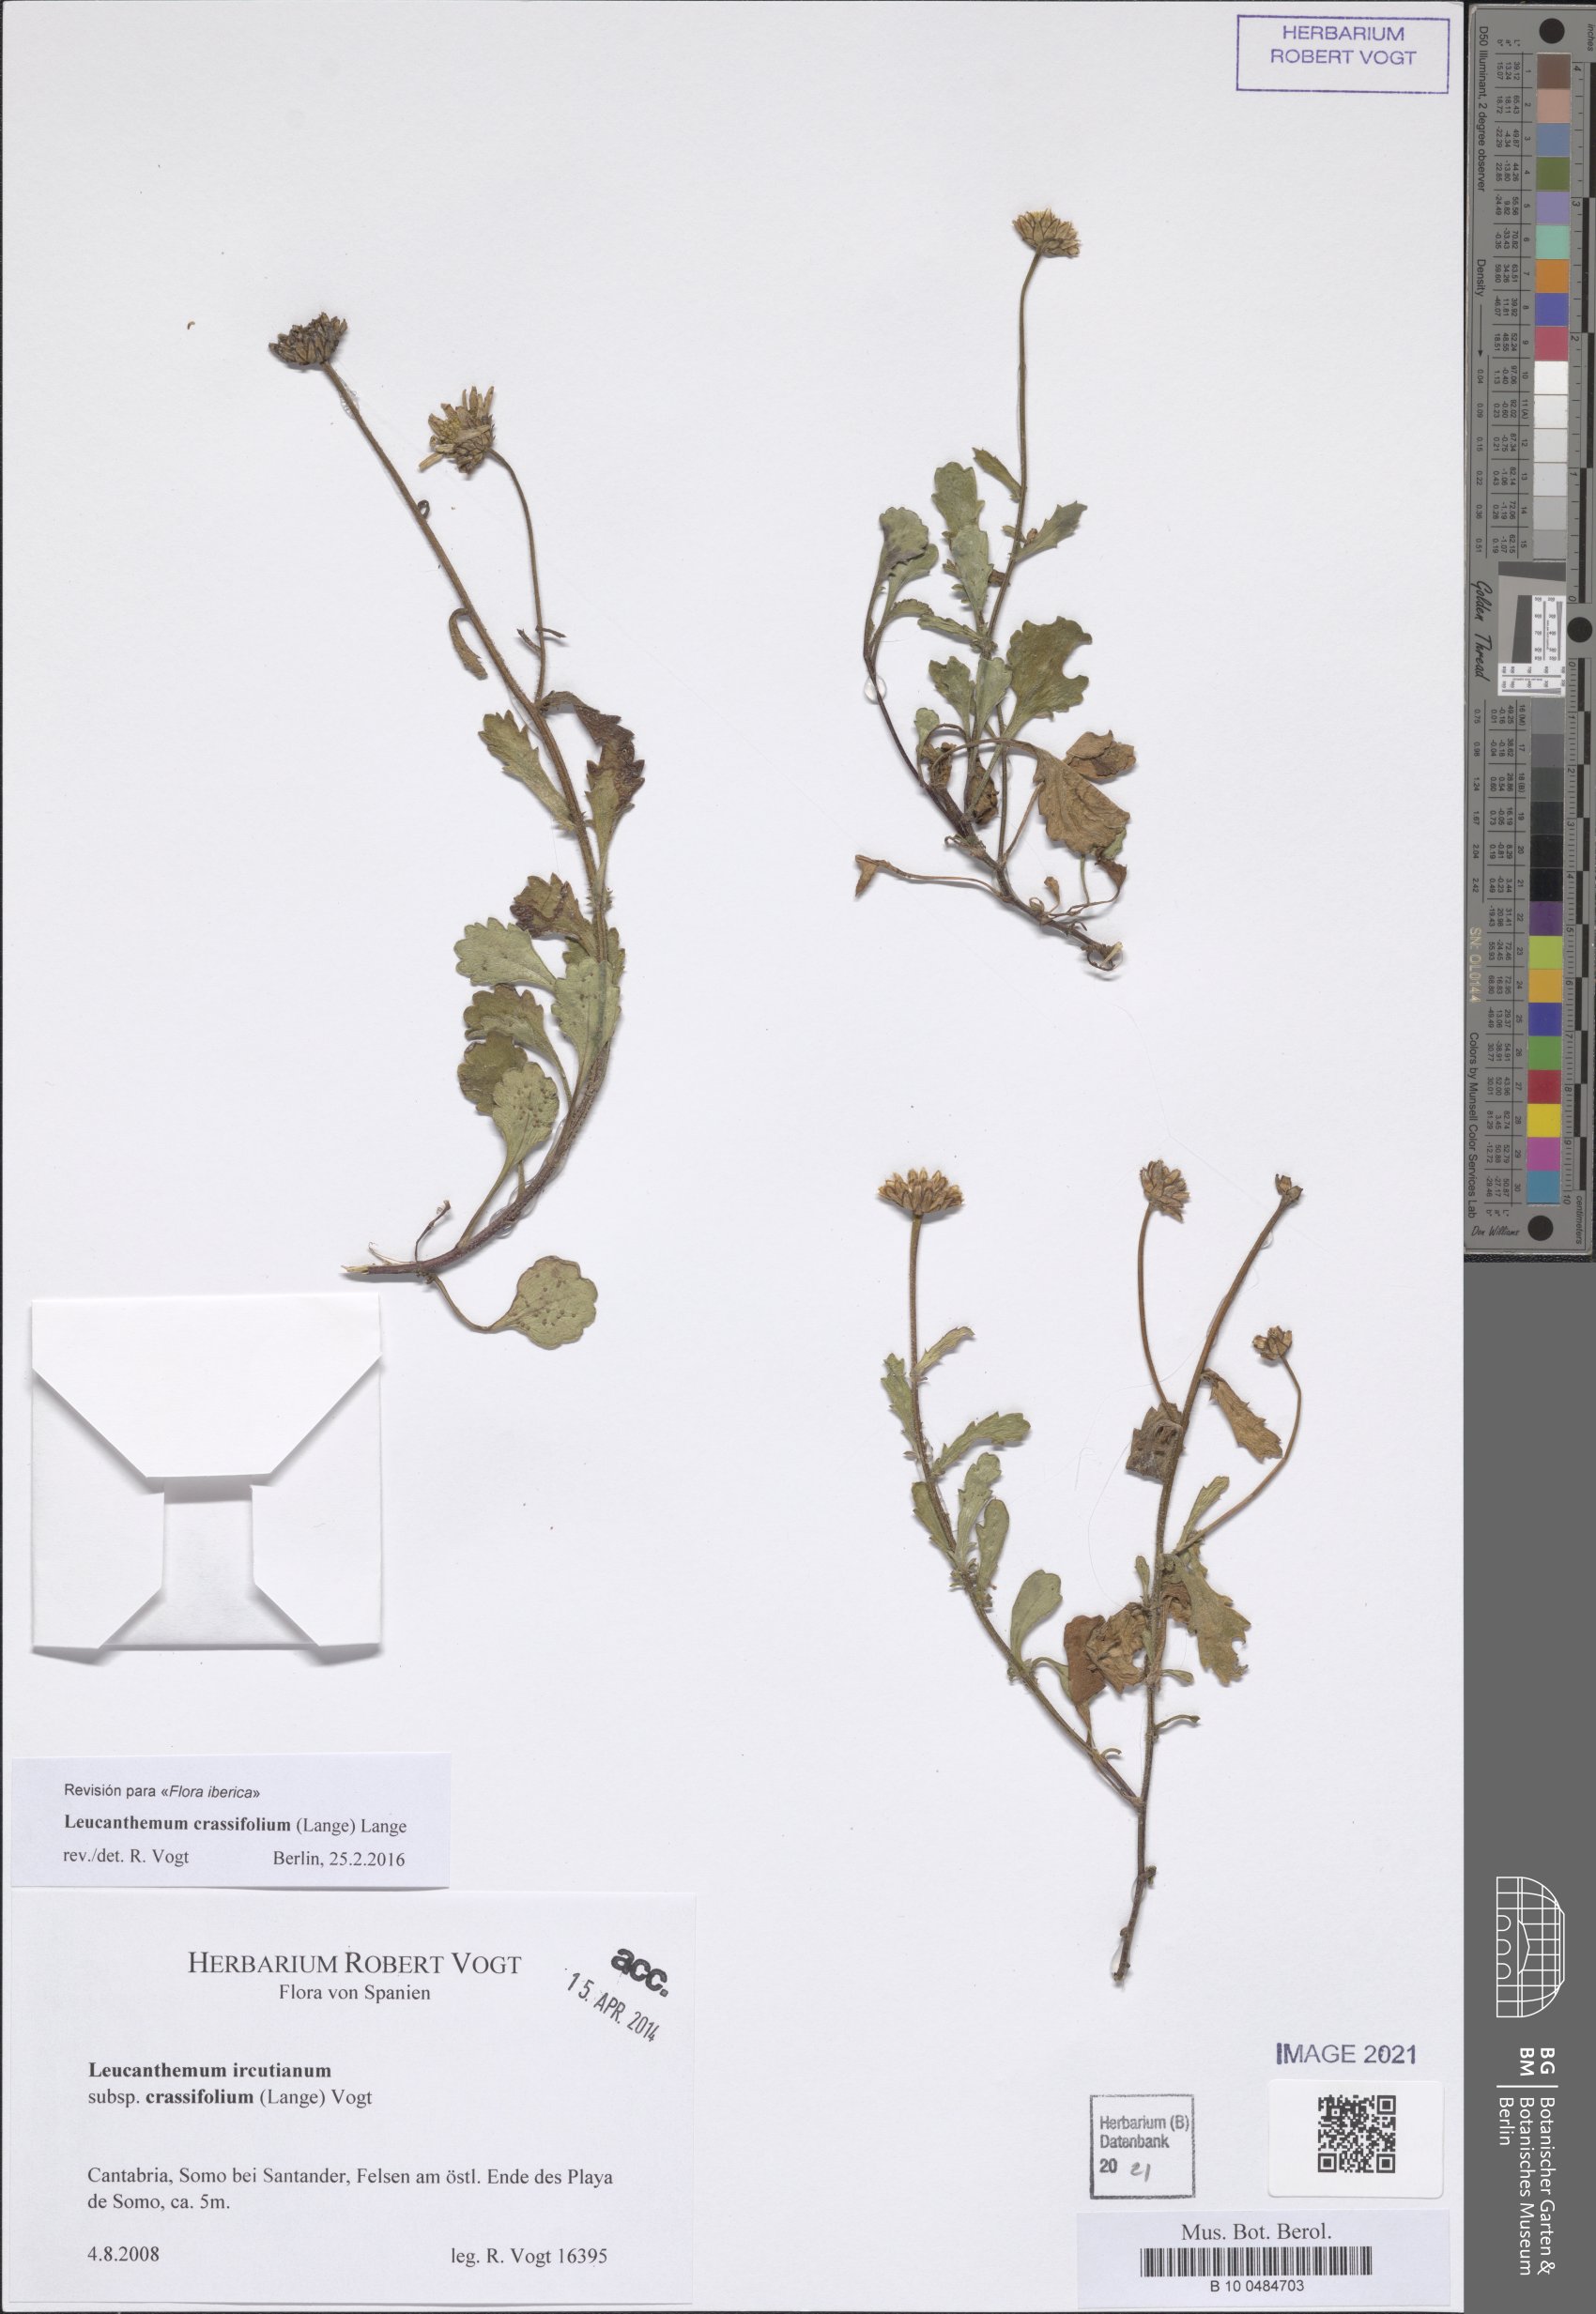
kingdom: Plantae
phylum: Tracheophyta
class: Magnoliopsida
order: Asterales
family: Asteraceae
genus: Leucanthemum
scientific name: Leucanthemum crassifolium
